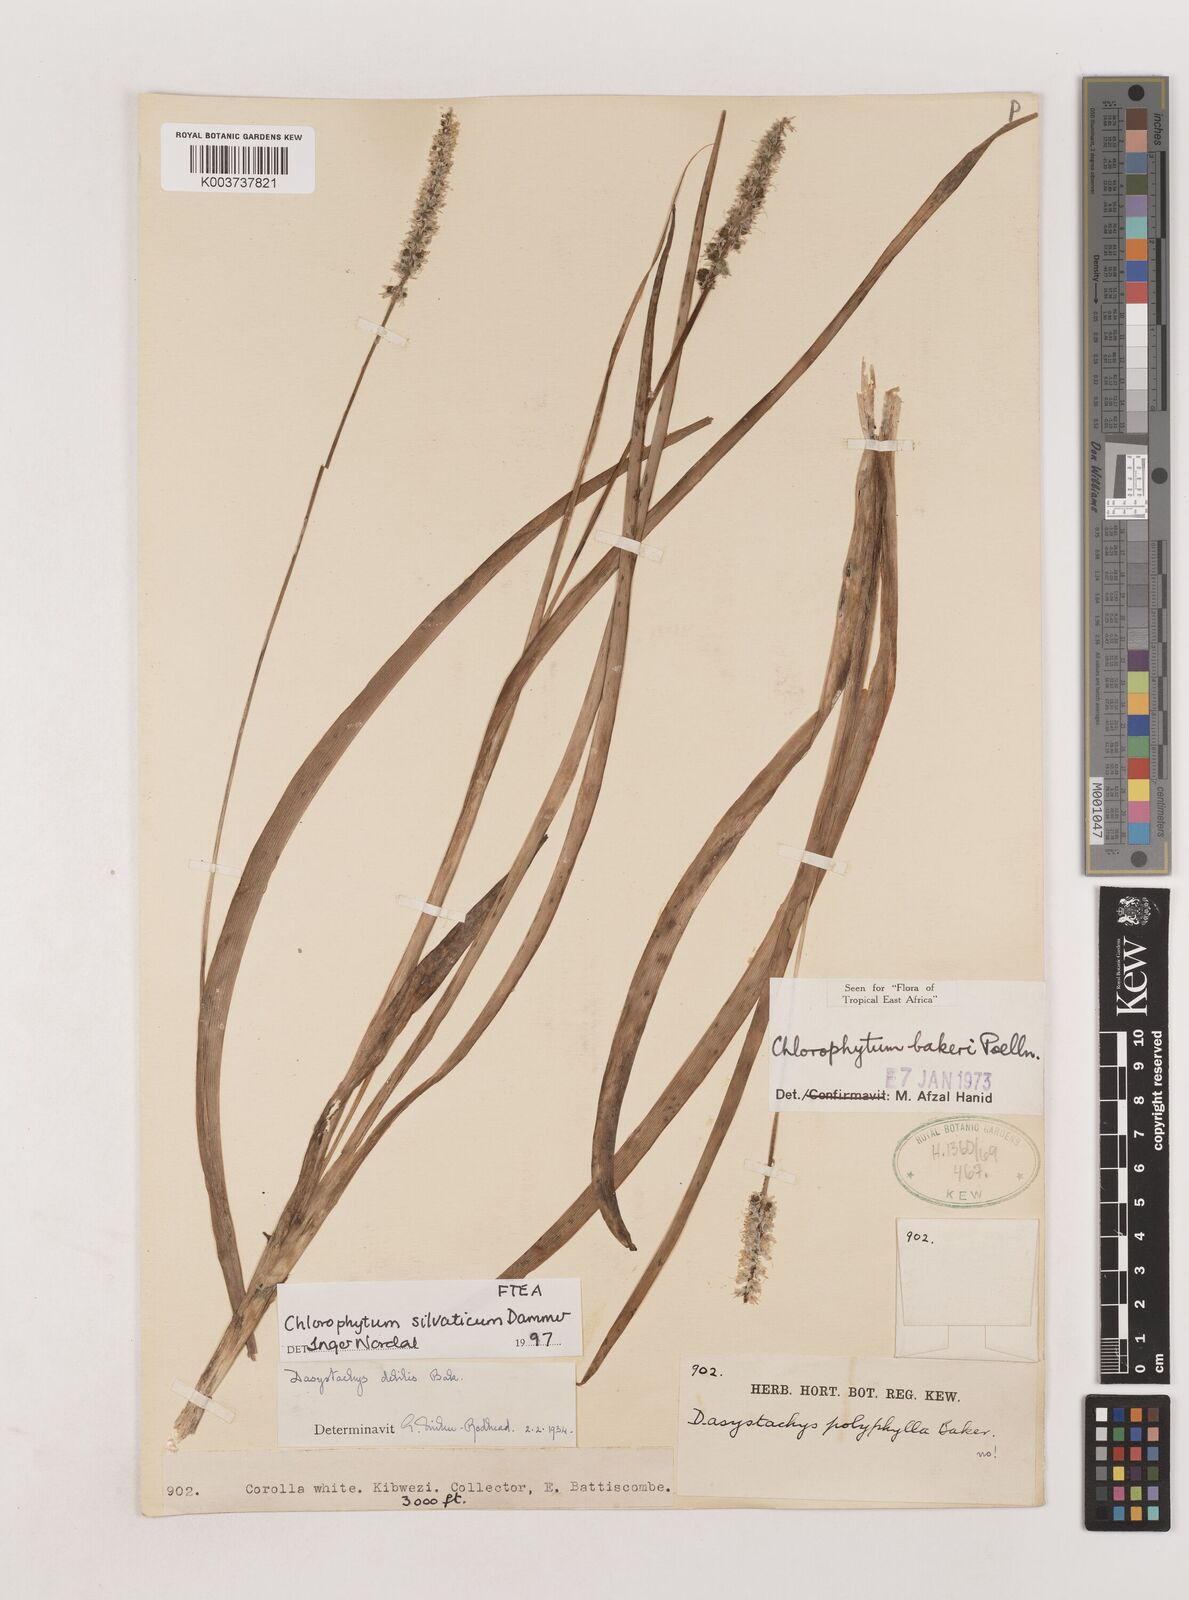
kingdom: Plantae
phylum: Tracheophyta
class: Liliopsida
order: Asparagales
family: Asparagaceae
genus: Chlorophytum
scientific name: Chlorophytum africanum
